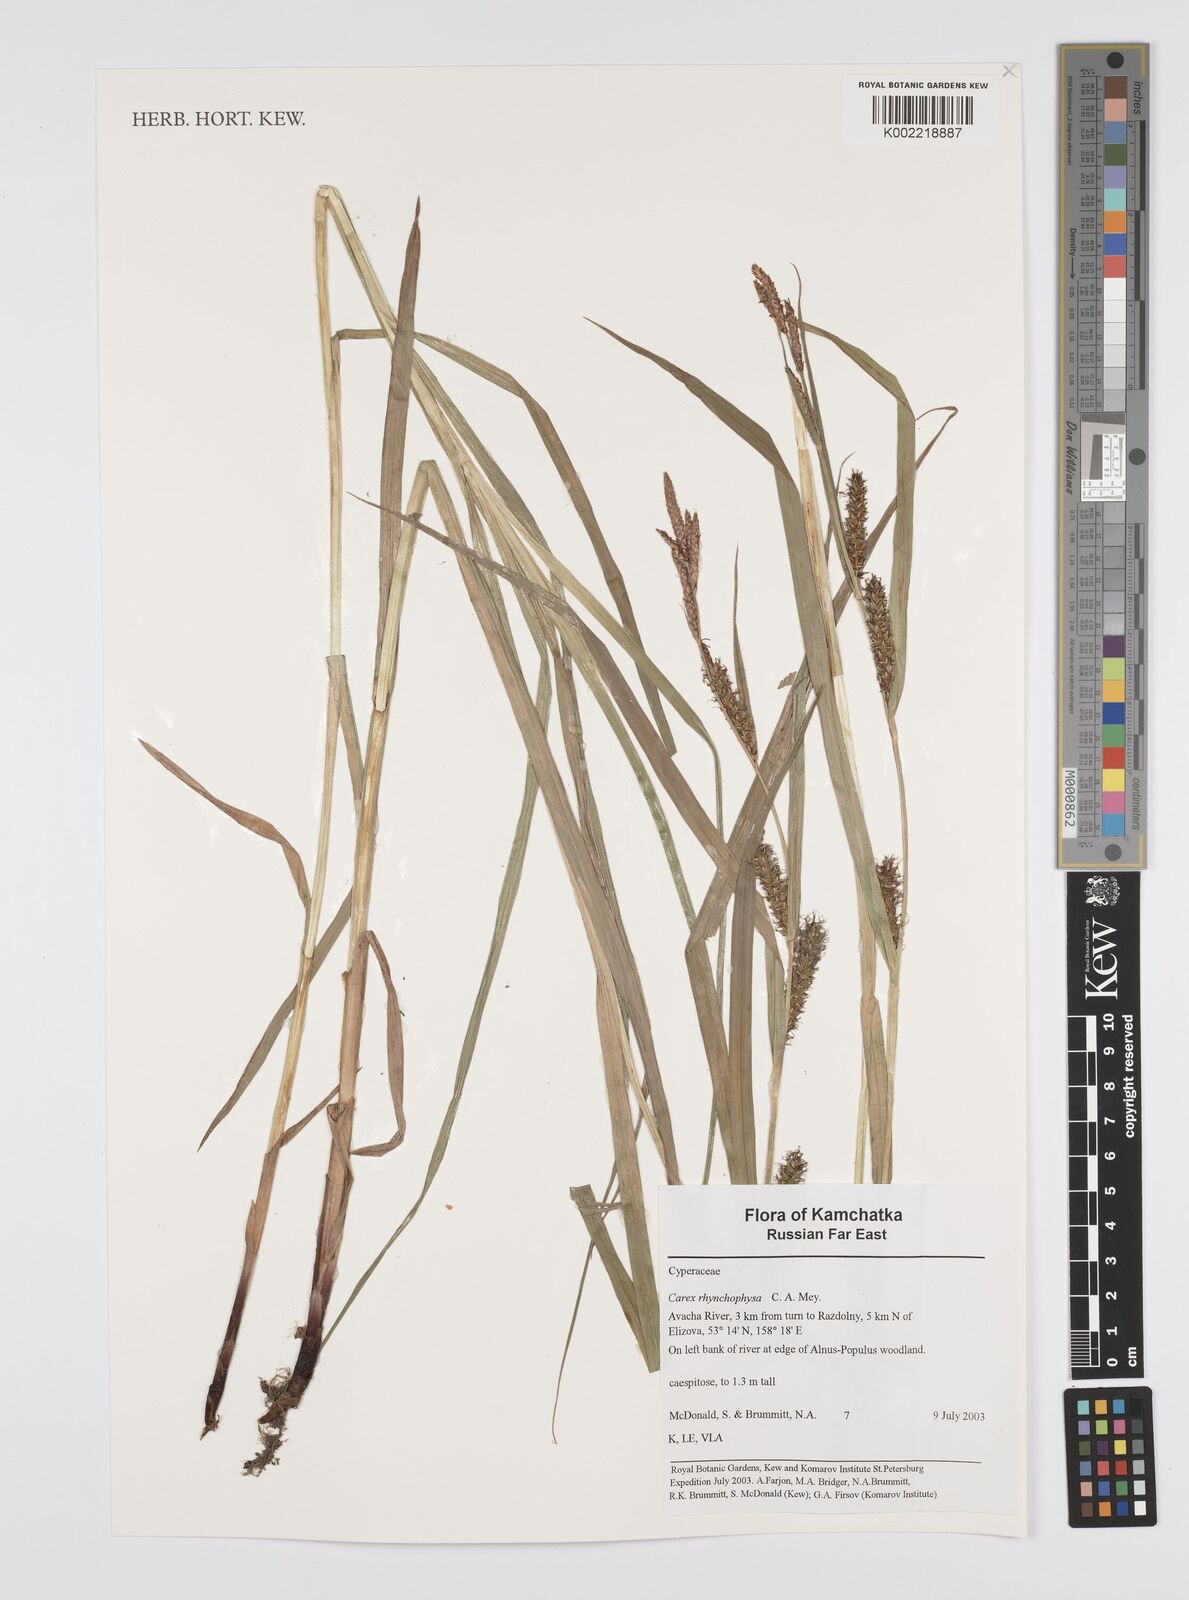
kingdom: Plantae
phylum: Tracheophyta
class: Liliopsida
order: Poales
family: Cyperaceae
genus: Carex
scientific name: Carex utriculata
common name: Beaked sedge
